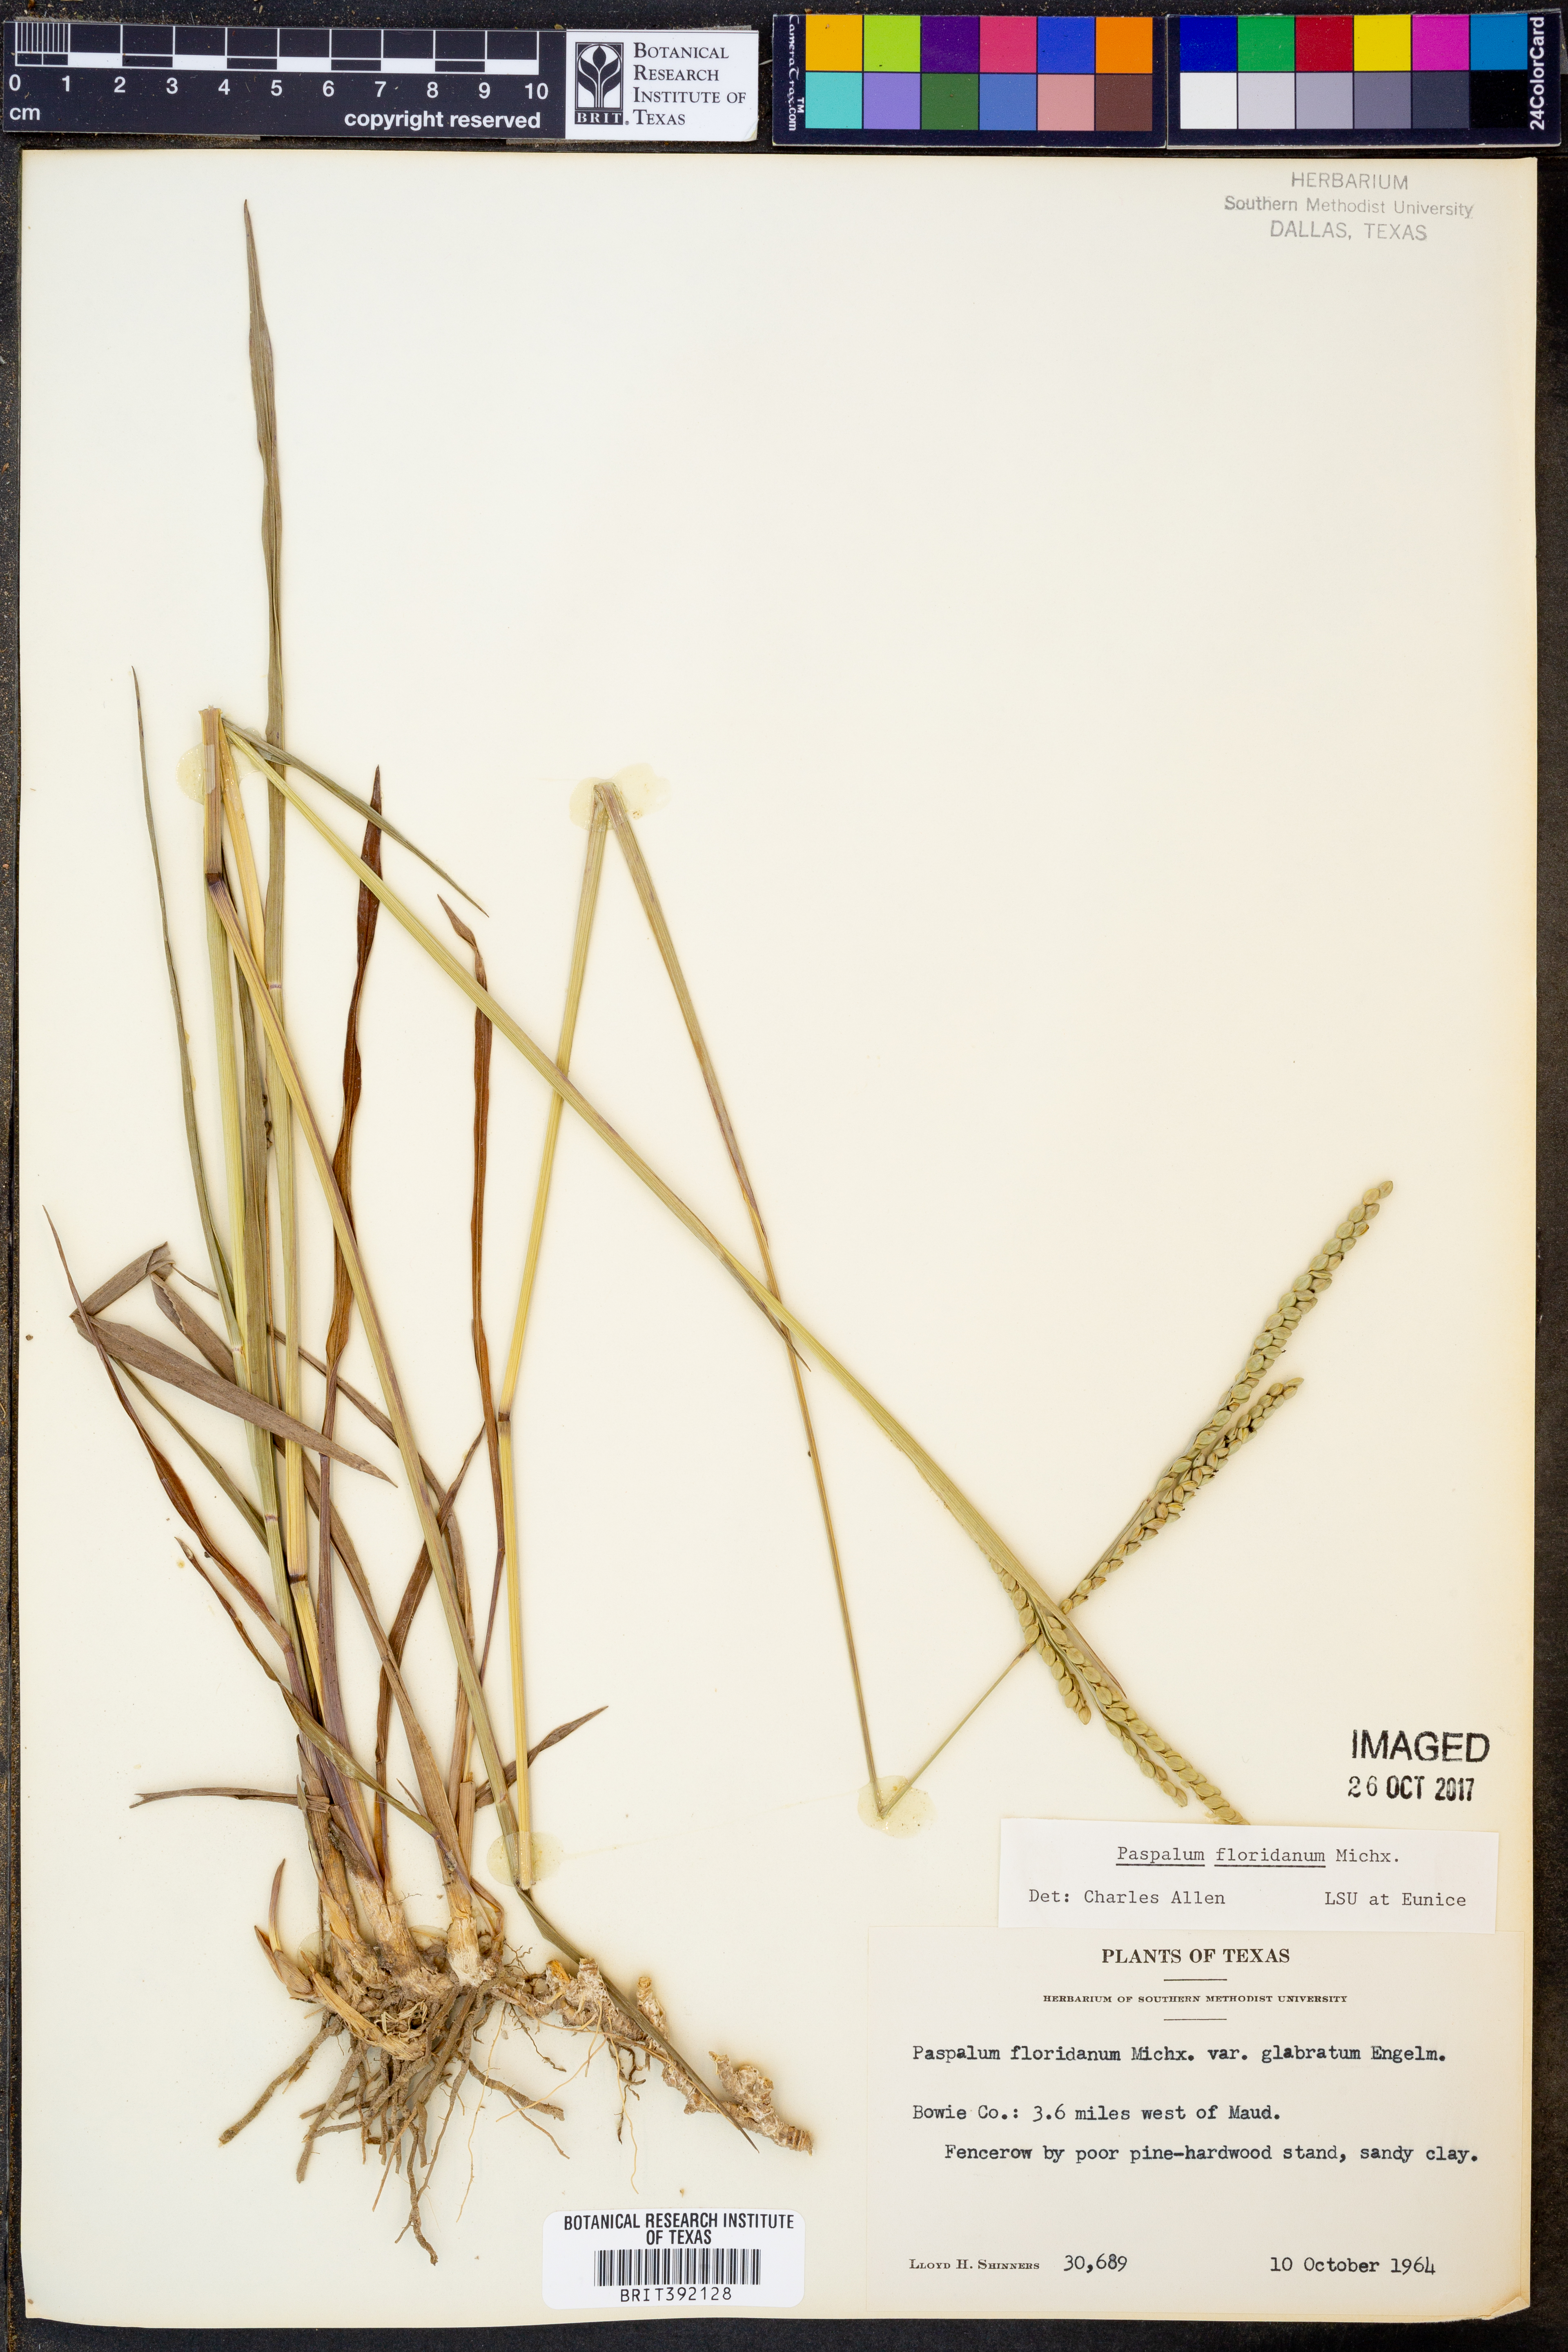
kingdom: Plantae
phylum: Tracheophyta
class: Liliopsida
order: Poales
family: Poaceae
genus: Paspalum
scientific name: Paspalum floridanum
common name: Florida paspalum
